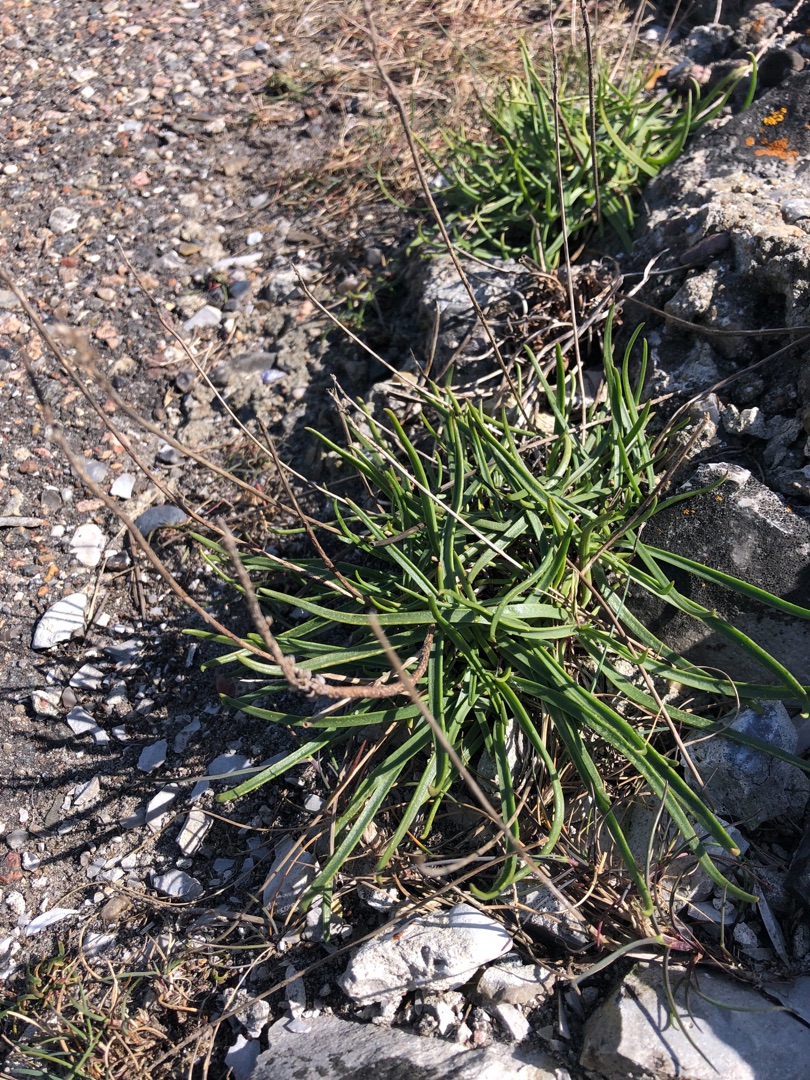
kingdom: Plantae
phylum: Tracheophyta
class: Magnoliopsida
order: Lamiales
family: Plantaginaceae
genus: Plantago
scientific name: Plantago maritima
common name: Strand-vejbred
